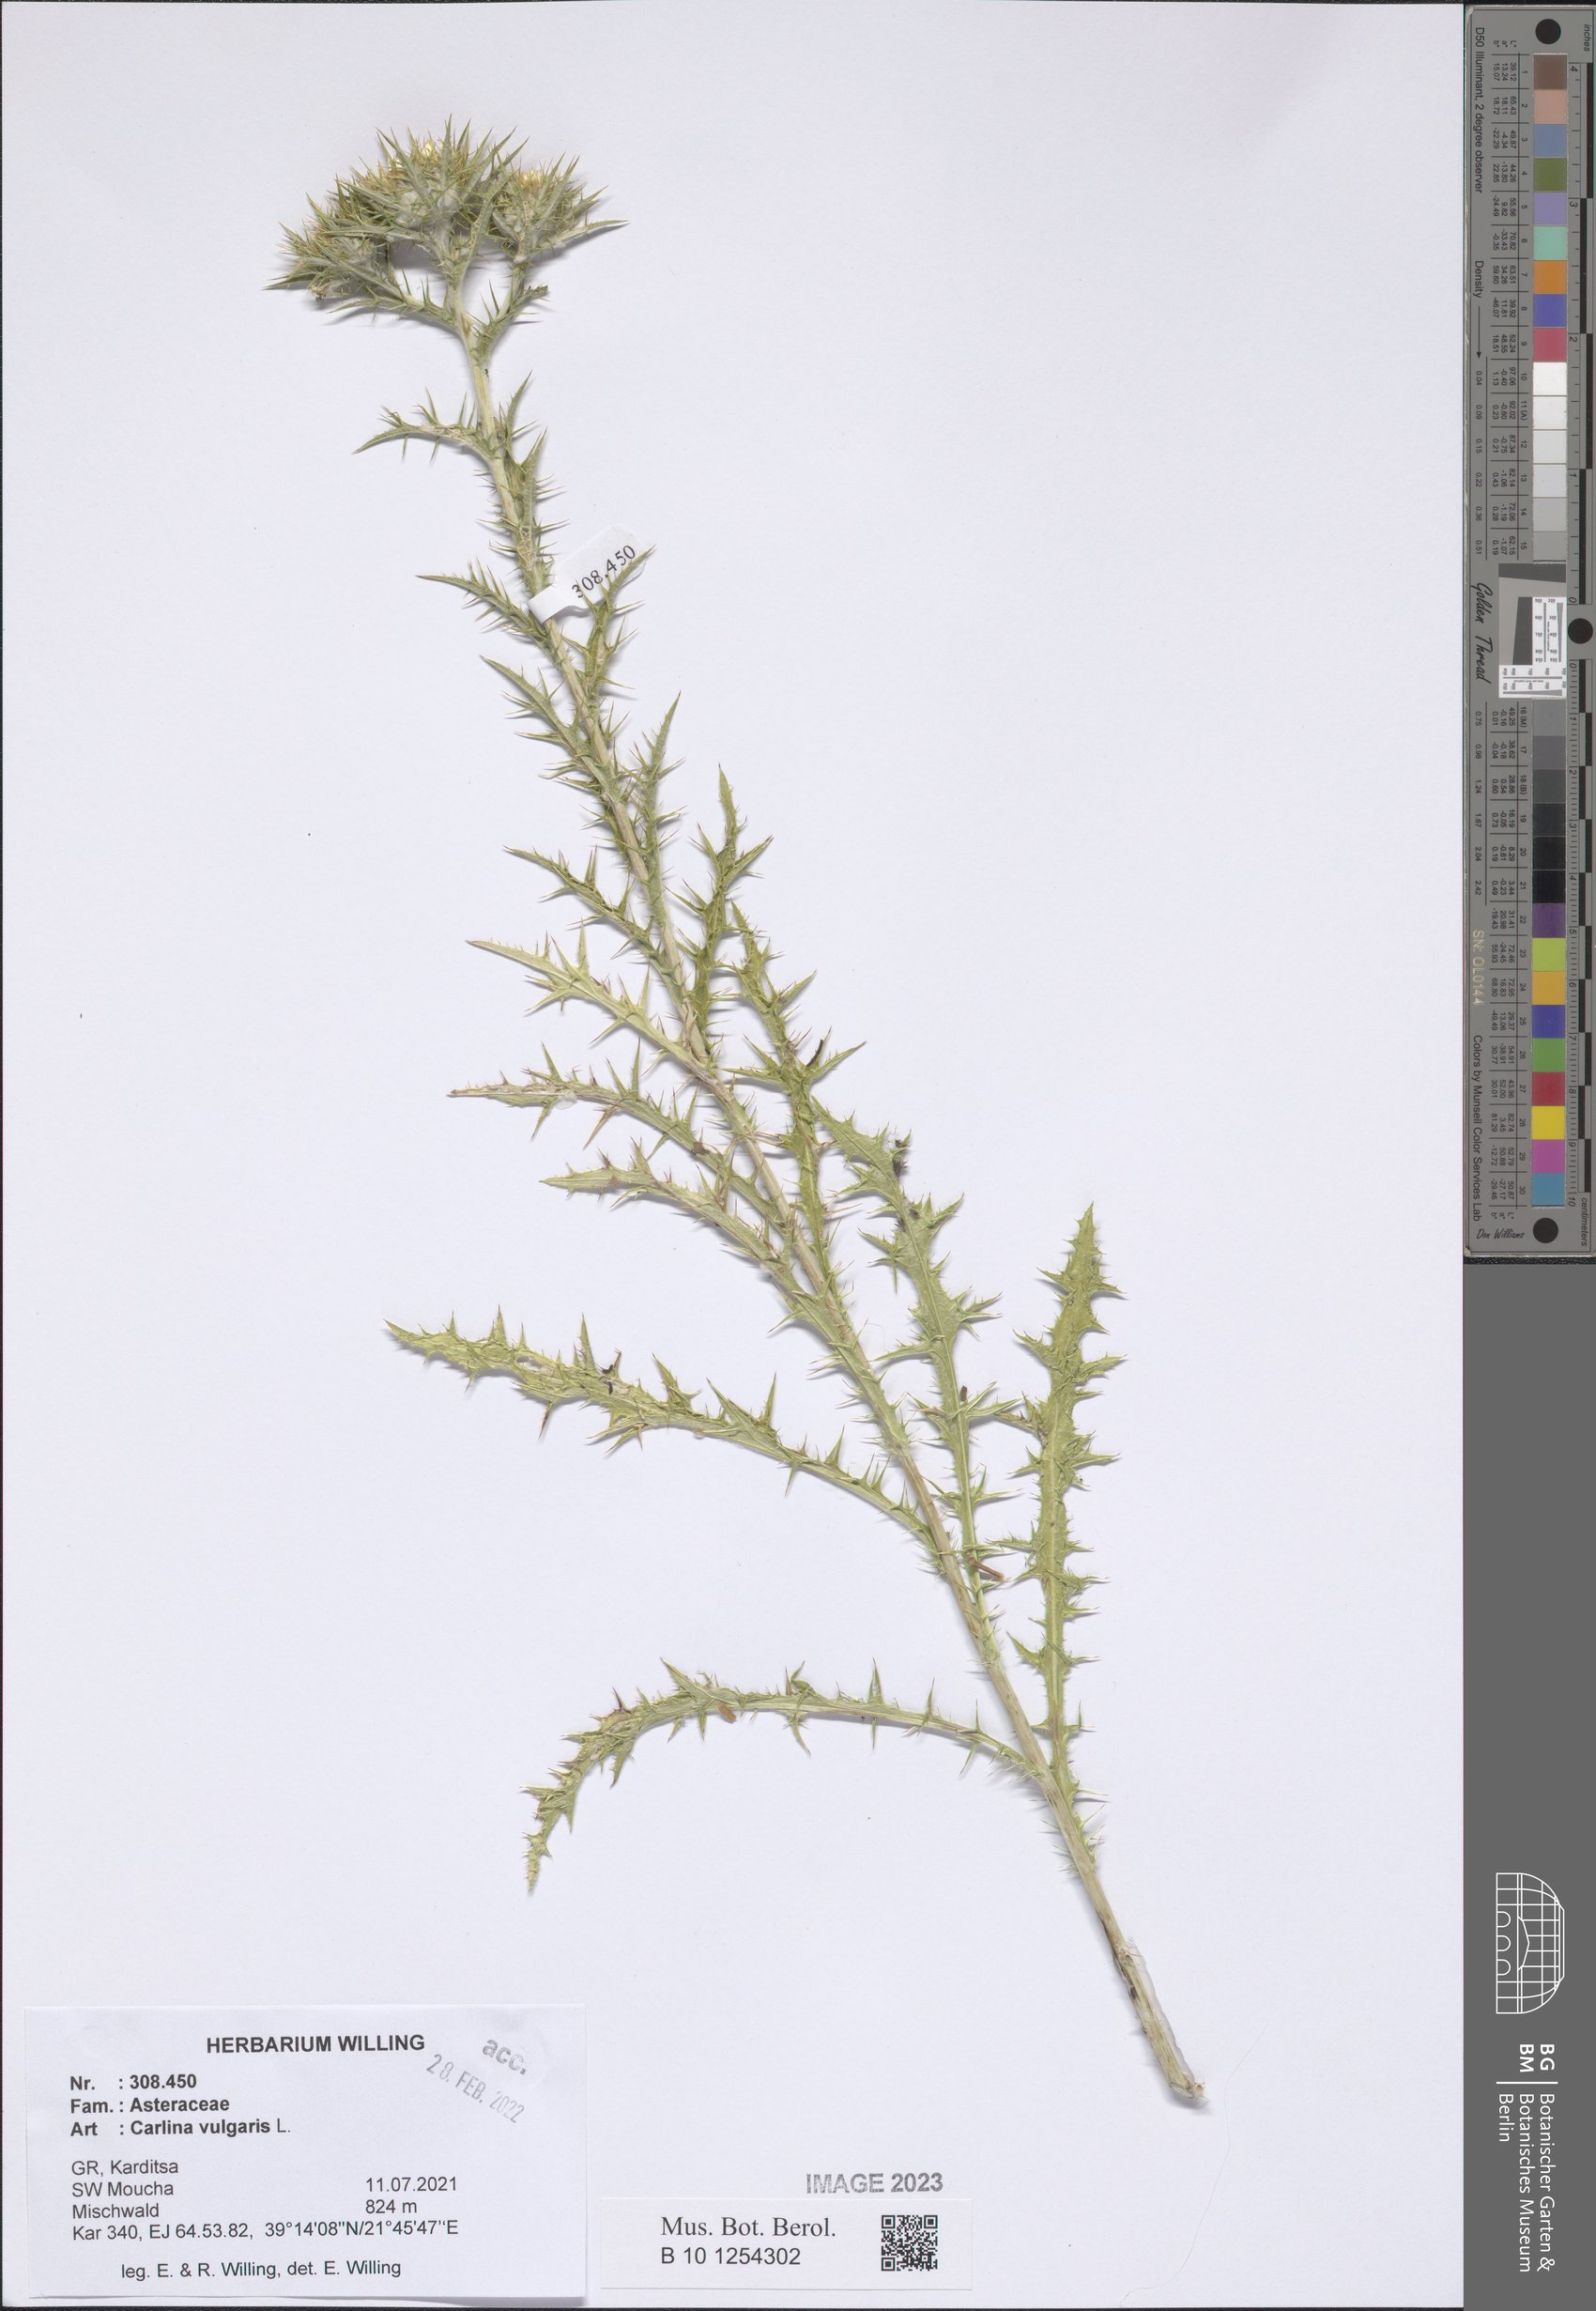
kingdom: Plantae
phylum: Tracheophyta
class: Magnoliopsida
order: Asterales
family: Asteraceae
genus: Carlina
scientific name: Carlina vulgaris
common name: Carline thistle
